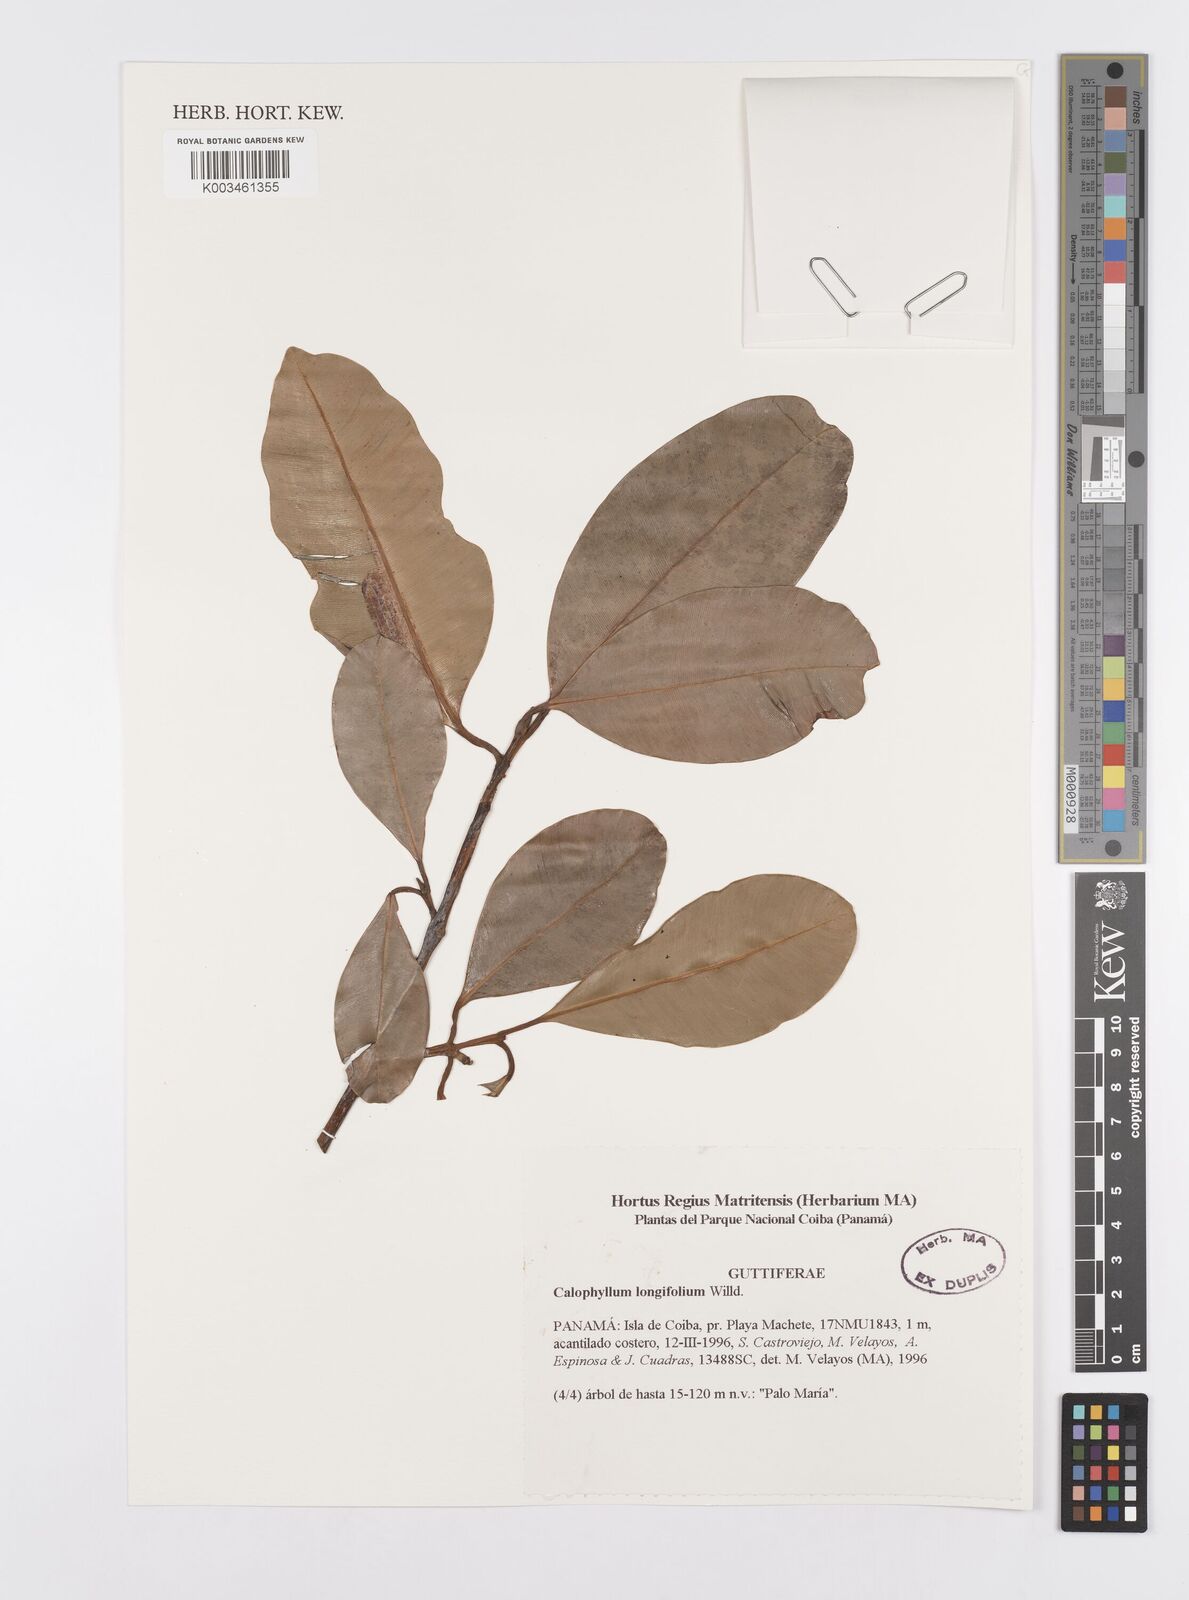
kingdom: Plantae
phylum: Tracheophyta
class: Magnoliopsida
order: Malpighiales
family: Calophyllaceae
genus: Calophyllum
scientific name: Calophyllum longifolium
